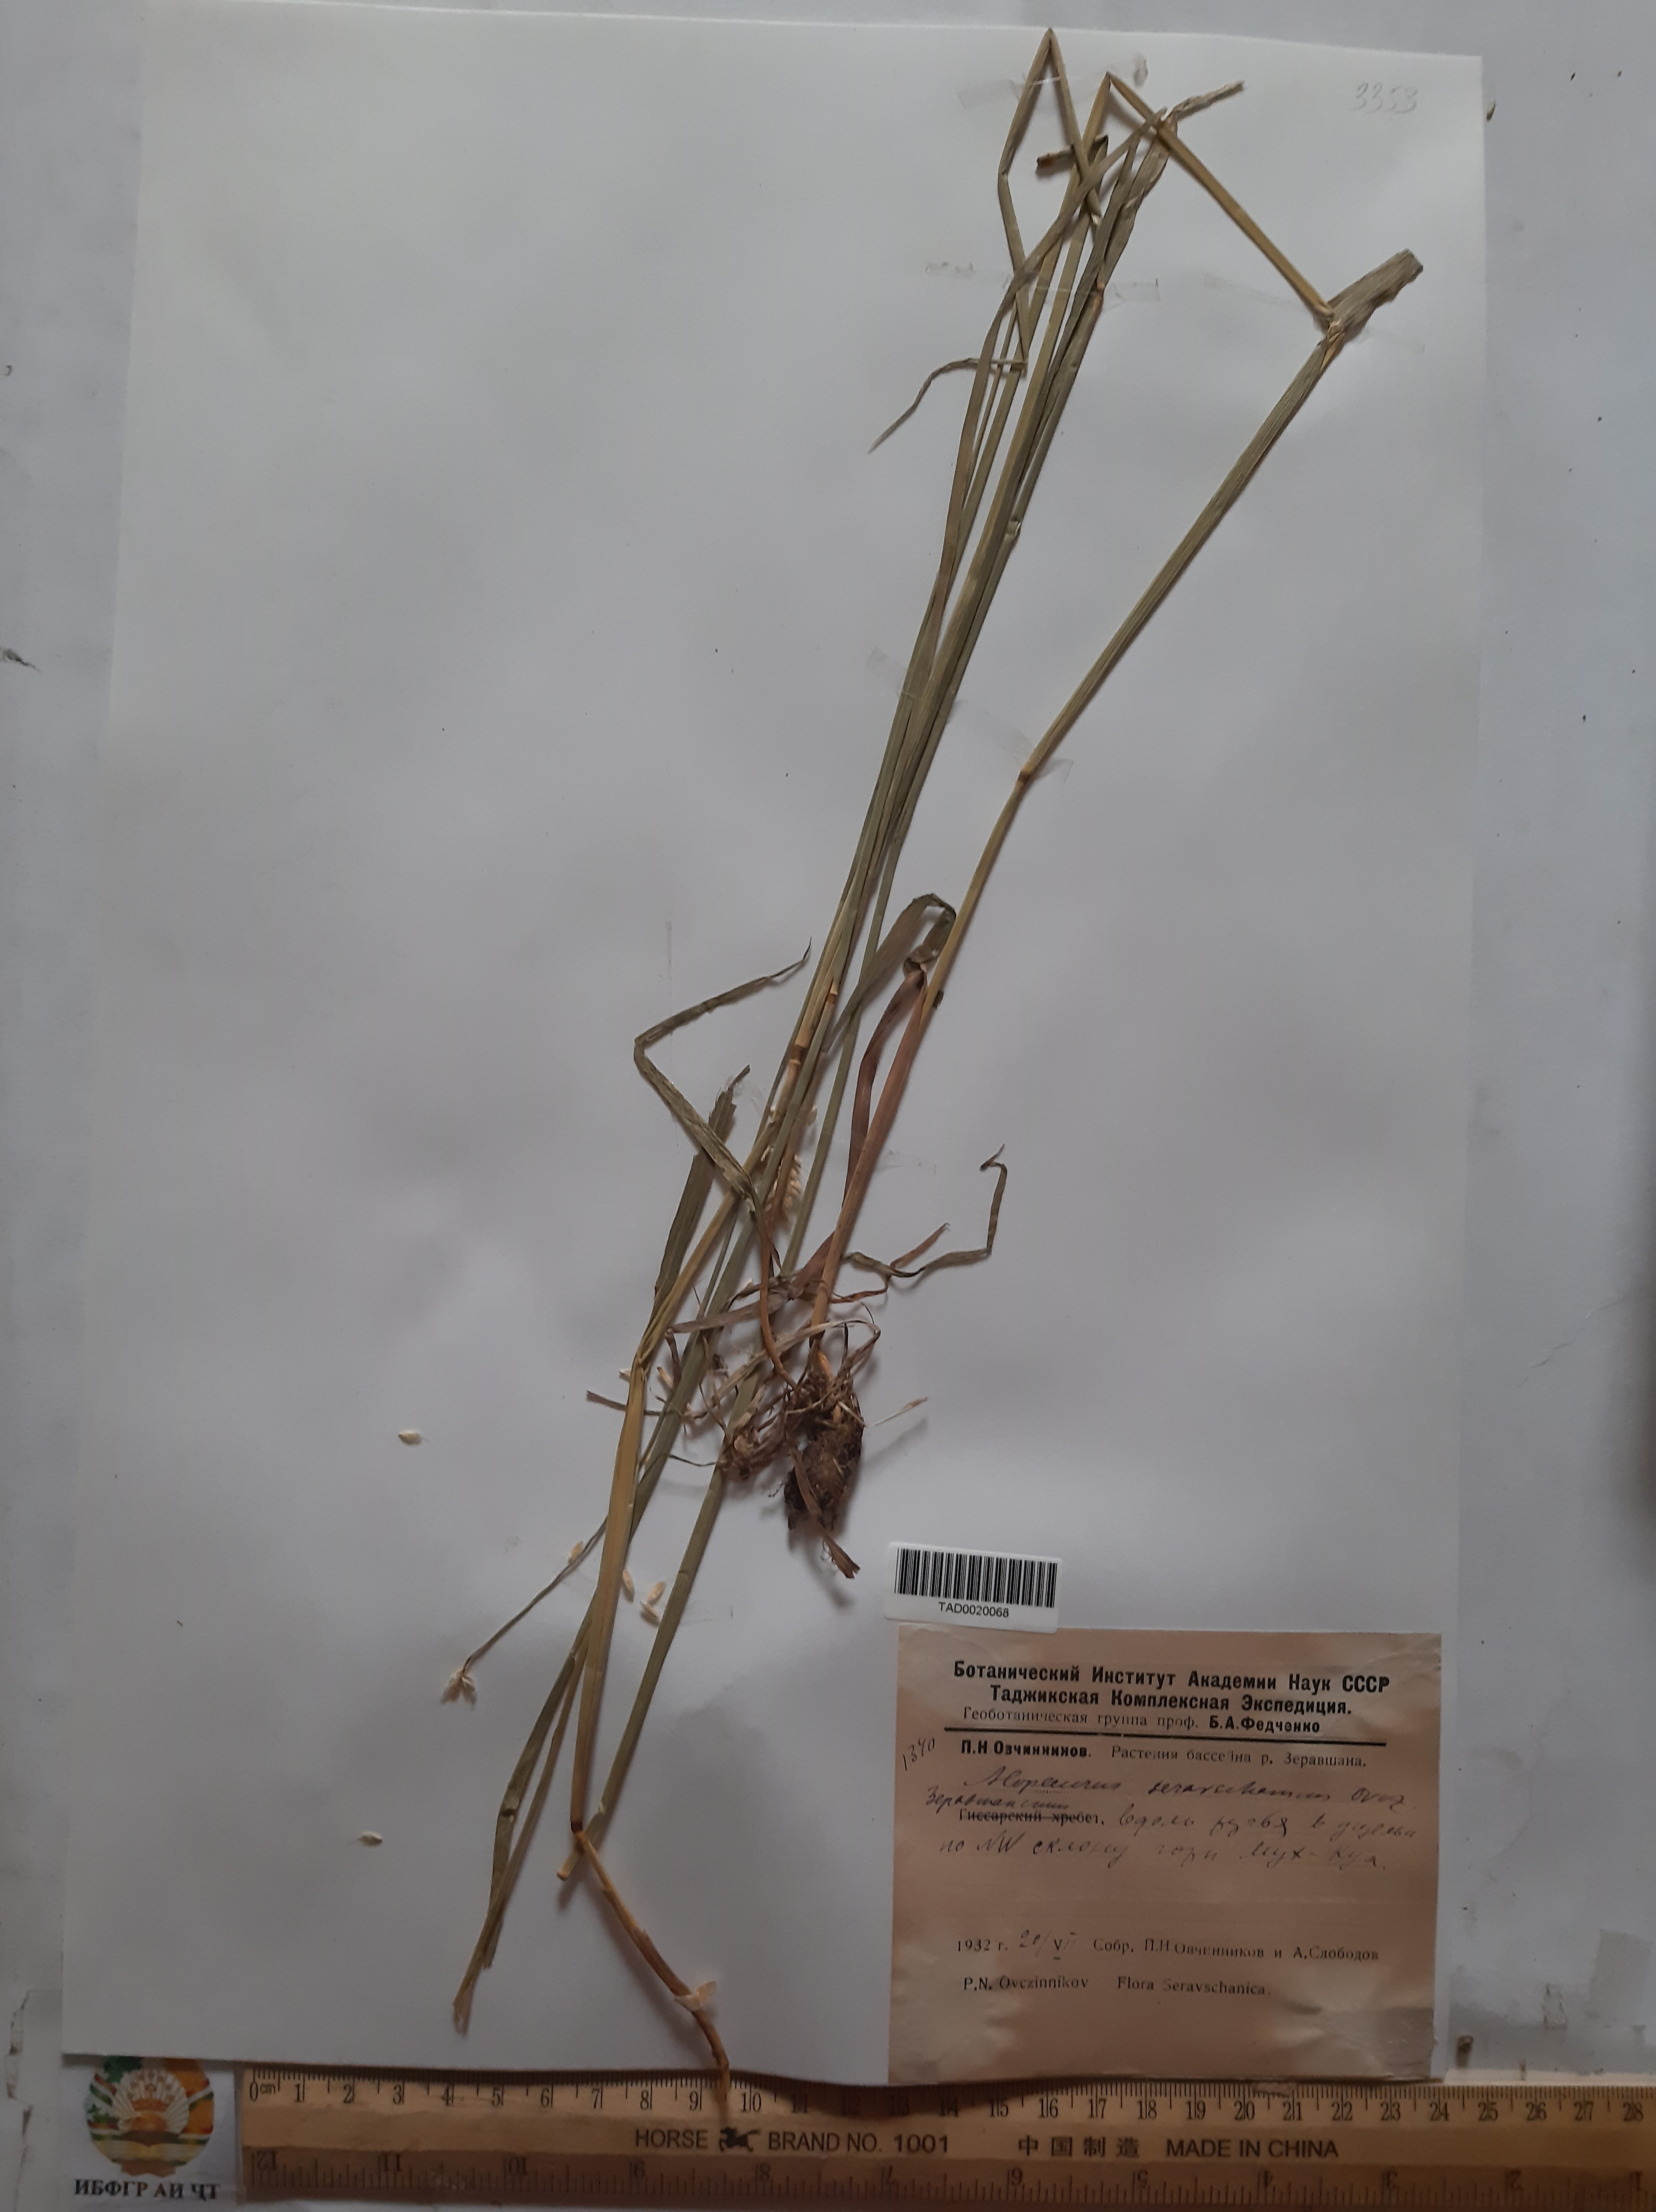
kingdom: Plantae
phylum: Tracheophyta
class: Liliopsida
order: Poales
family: Poaceae
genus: Alopecurus
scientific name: Alopecurus pratensis
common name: Meadow foxtail
